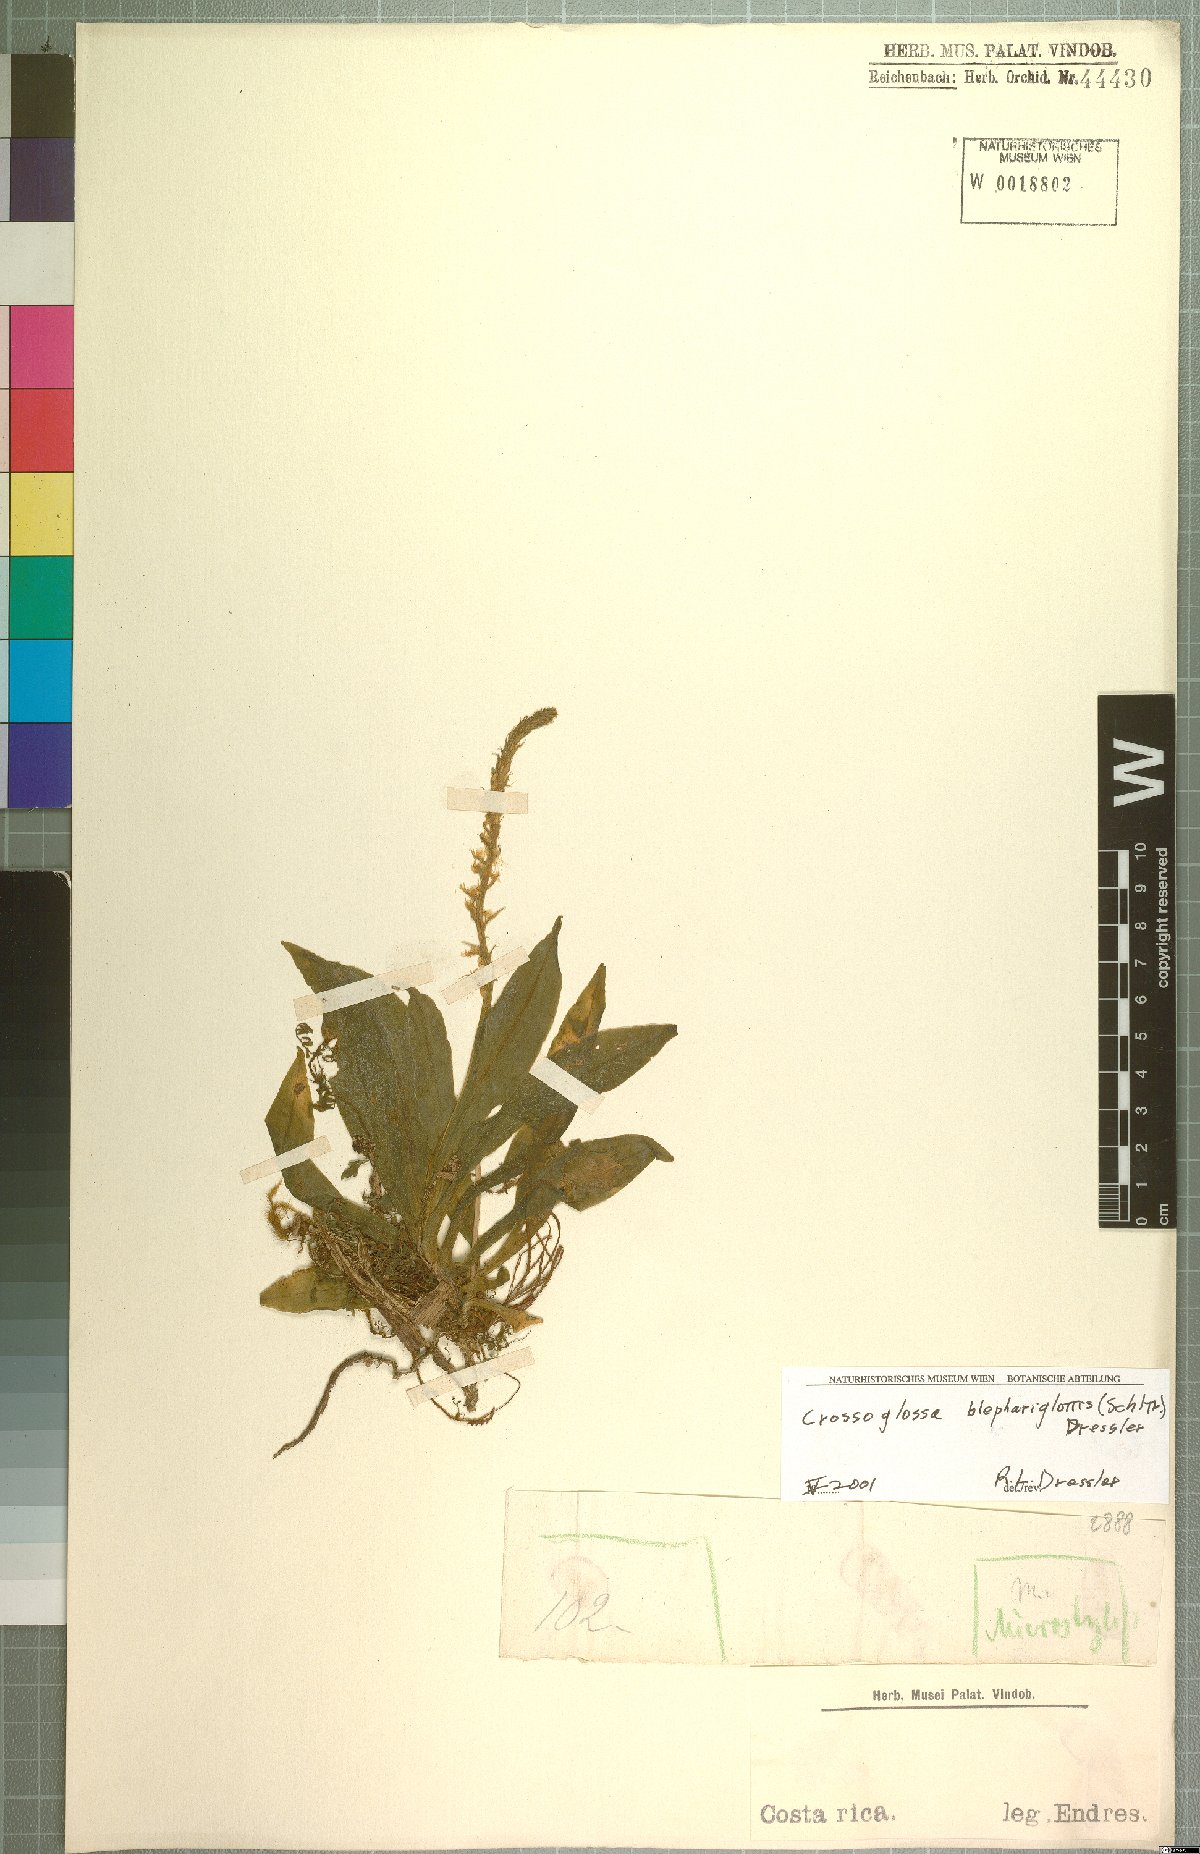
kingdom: Plantae
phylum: Tracheophyta
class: Liliopsida
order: Asparagales
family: Orchidaceae
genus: Crossoglossa
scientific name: Crossoglossa blephariglottis
